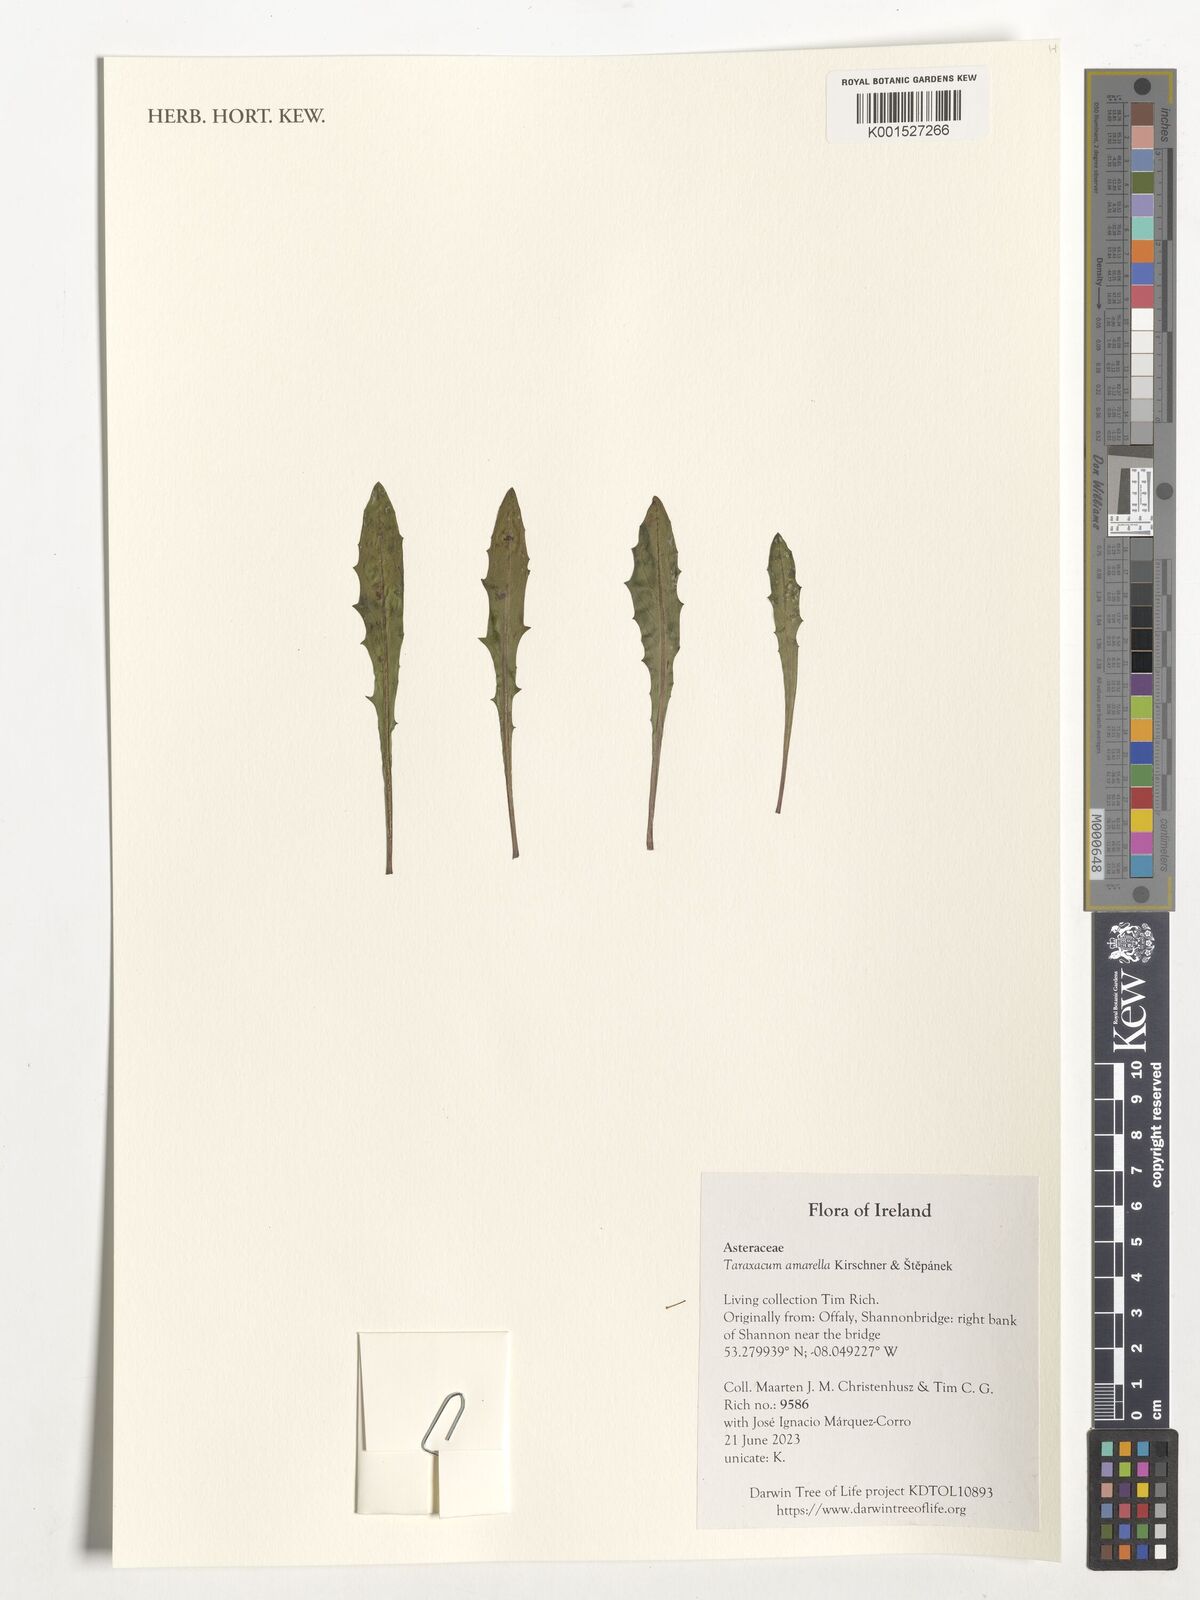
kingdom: Plantae
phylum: Tracheophyta
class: Magnoliopsida
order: Asterales
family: Asteraceae
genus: Taraxacum
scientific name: Taraxacum amarellum
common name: Irish dandelion
